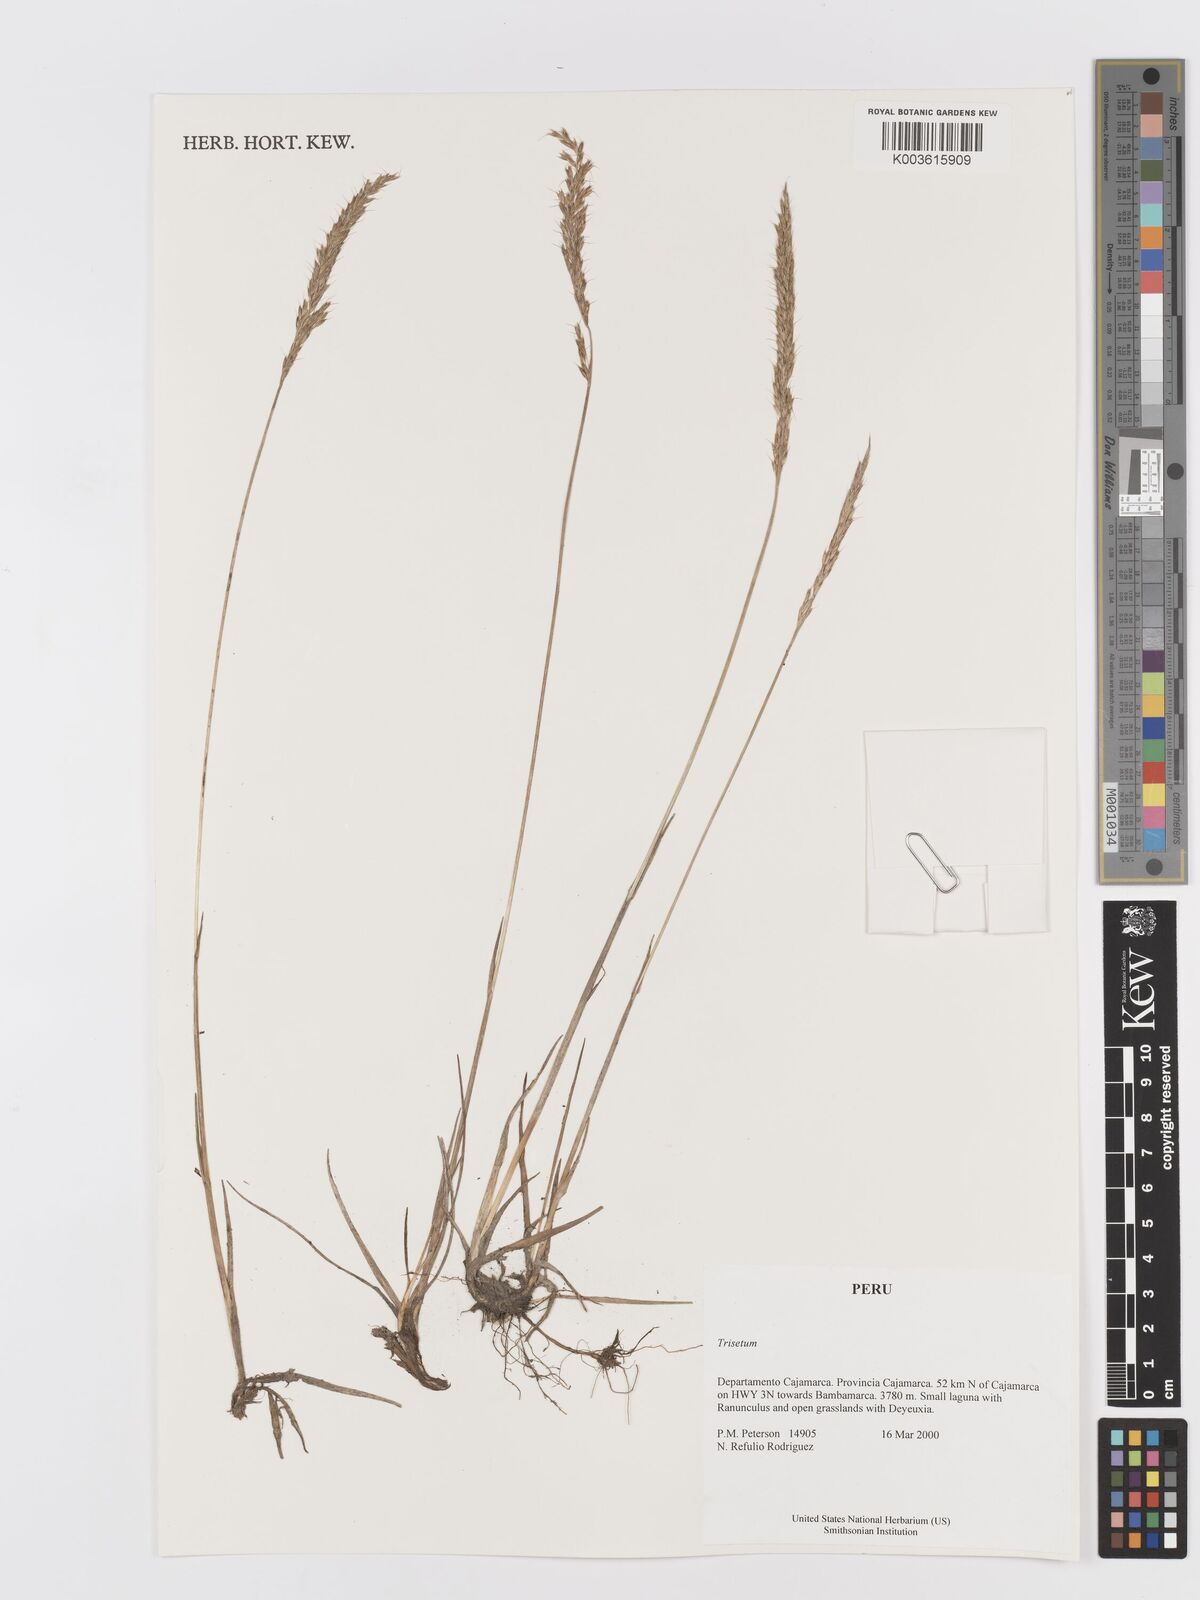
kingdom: Plantae
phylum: Tracheophyta
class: Liliopsida
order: Poales
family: Poaceae
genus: Trisetum
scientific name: Trisetum
